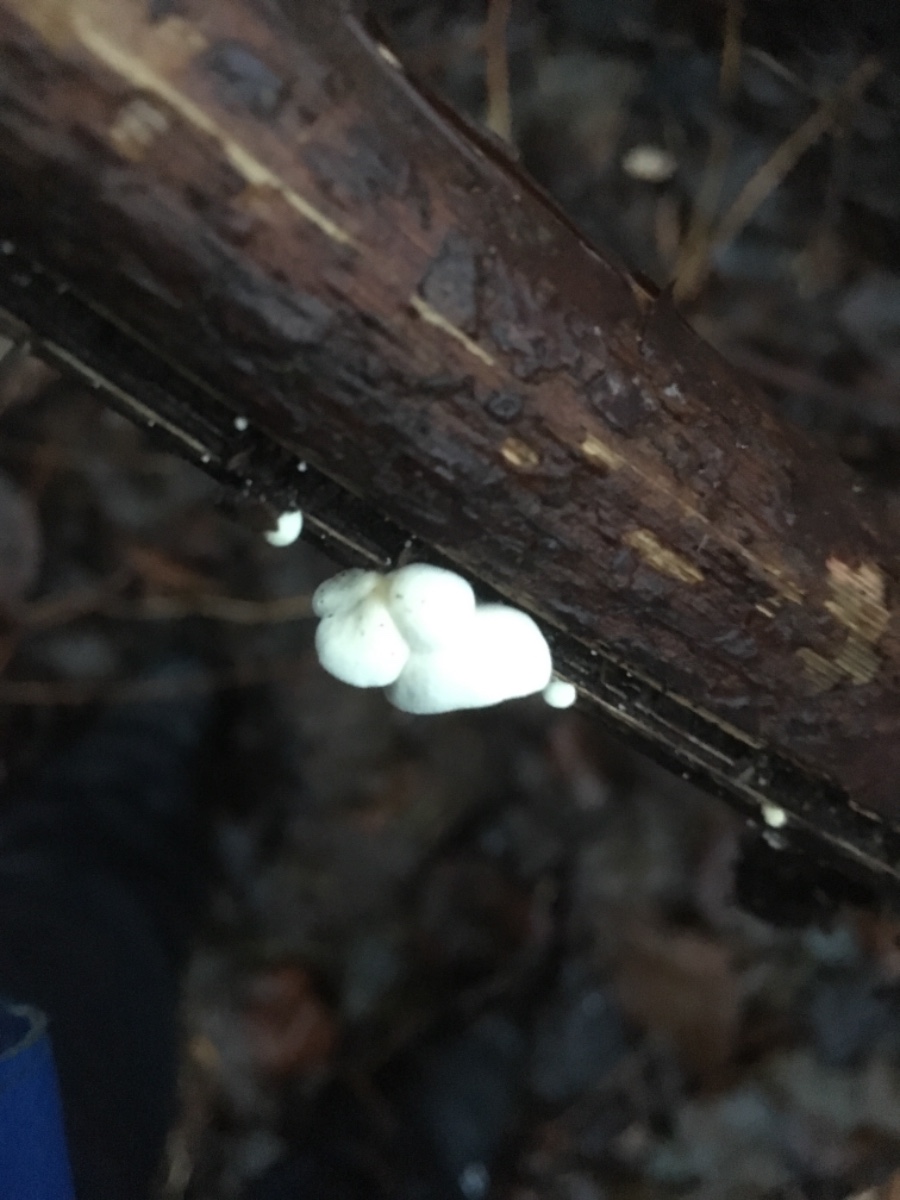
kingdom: Fungi
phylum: Basidiomycota
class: Agaricomycetes
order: Agaricales
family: Crepidotaceae
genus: Crepidotus
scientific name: Crepidotus luteolus
